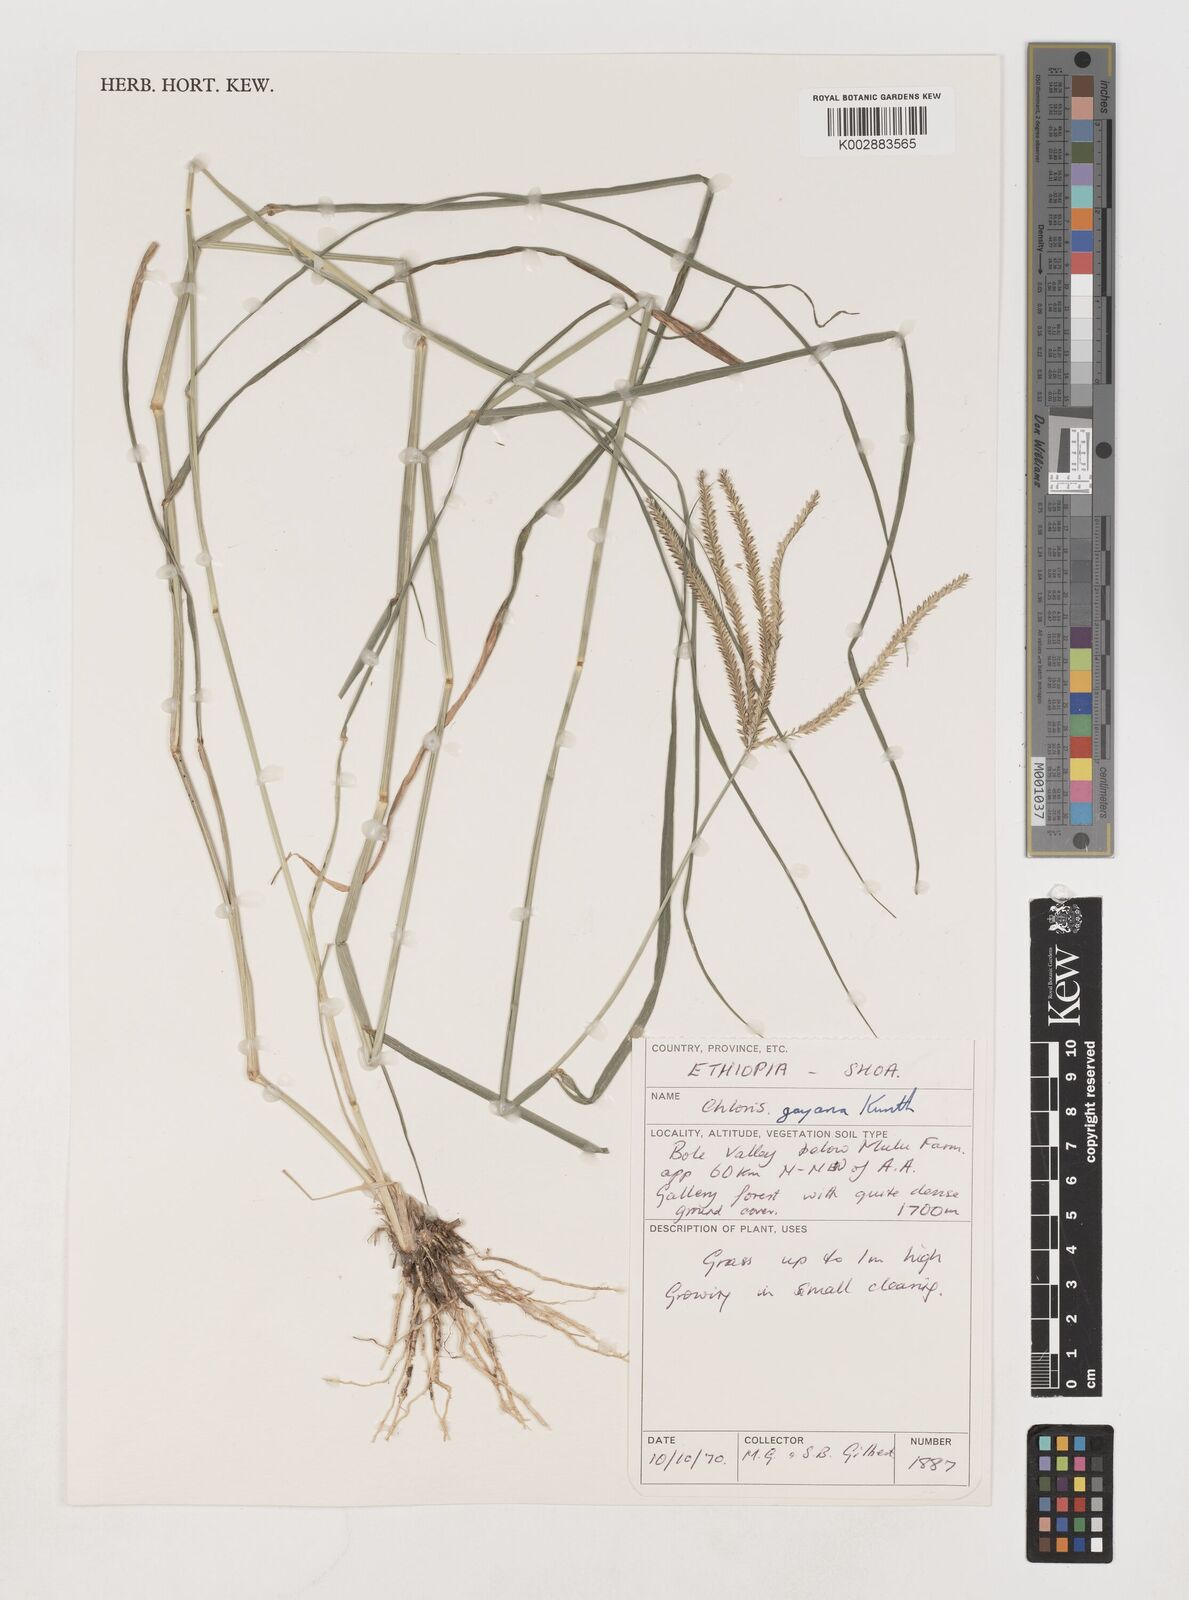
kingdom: Plantae
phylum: Tracheophyta
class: Liliopsida
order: Poales
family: Poaceae
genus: Chloris
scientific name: Chloris gayana
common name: Rhodes grass
